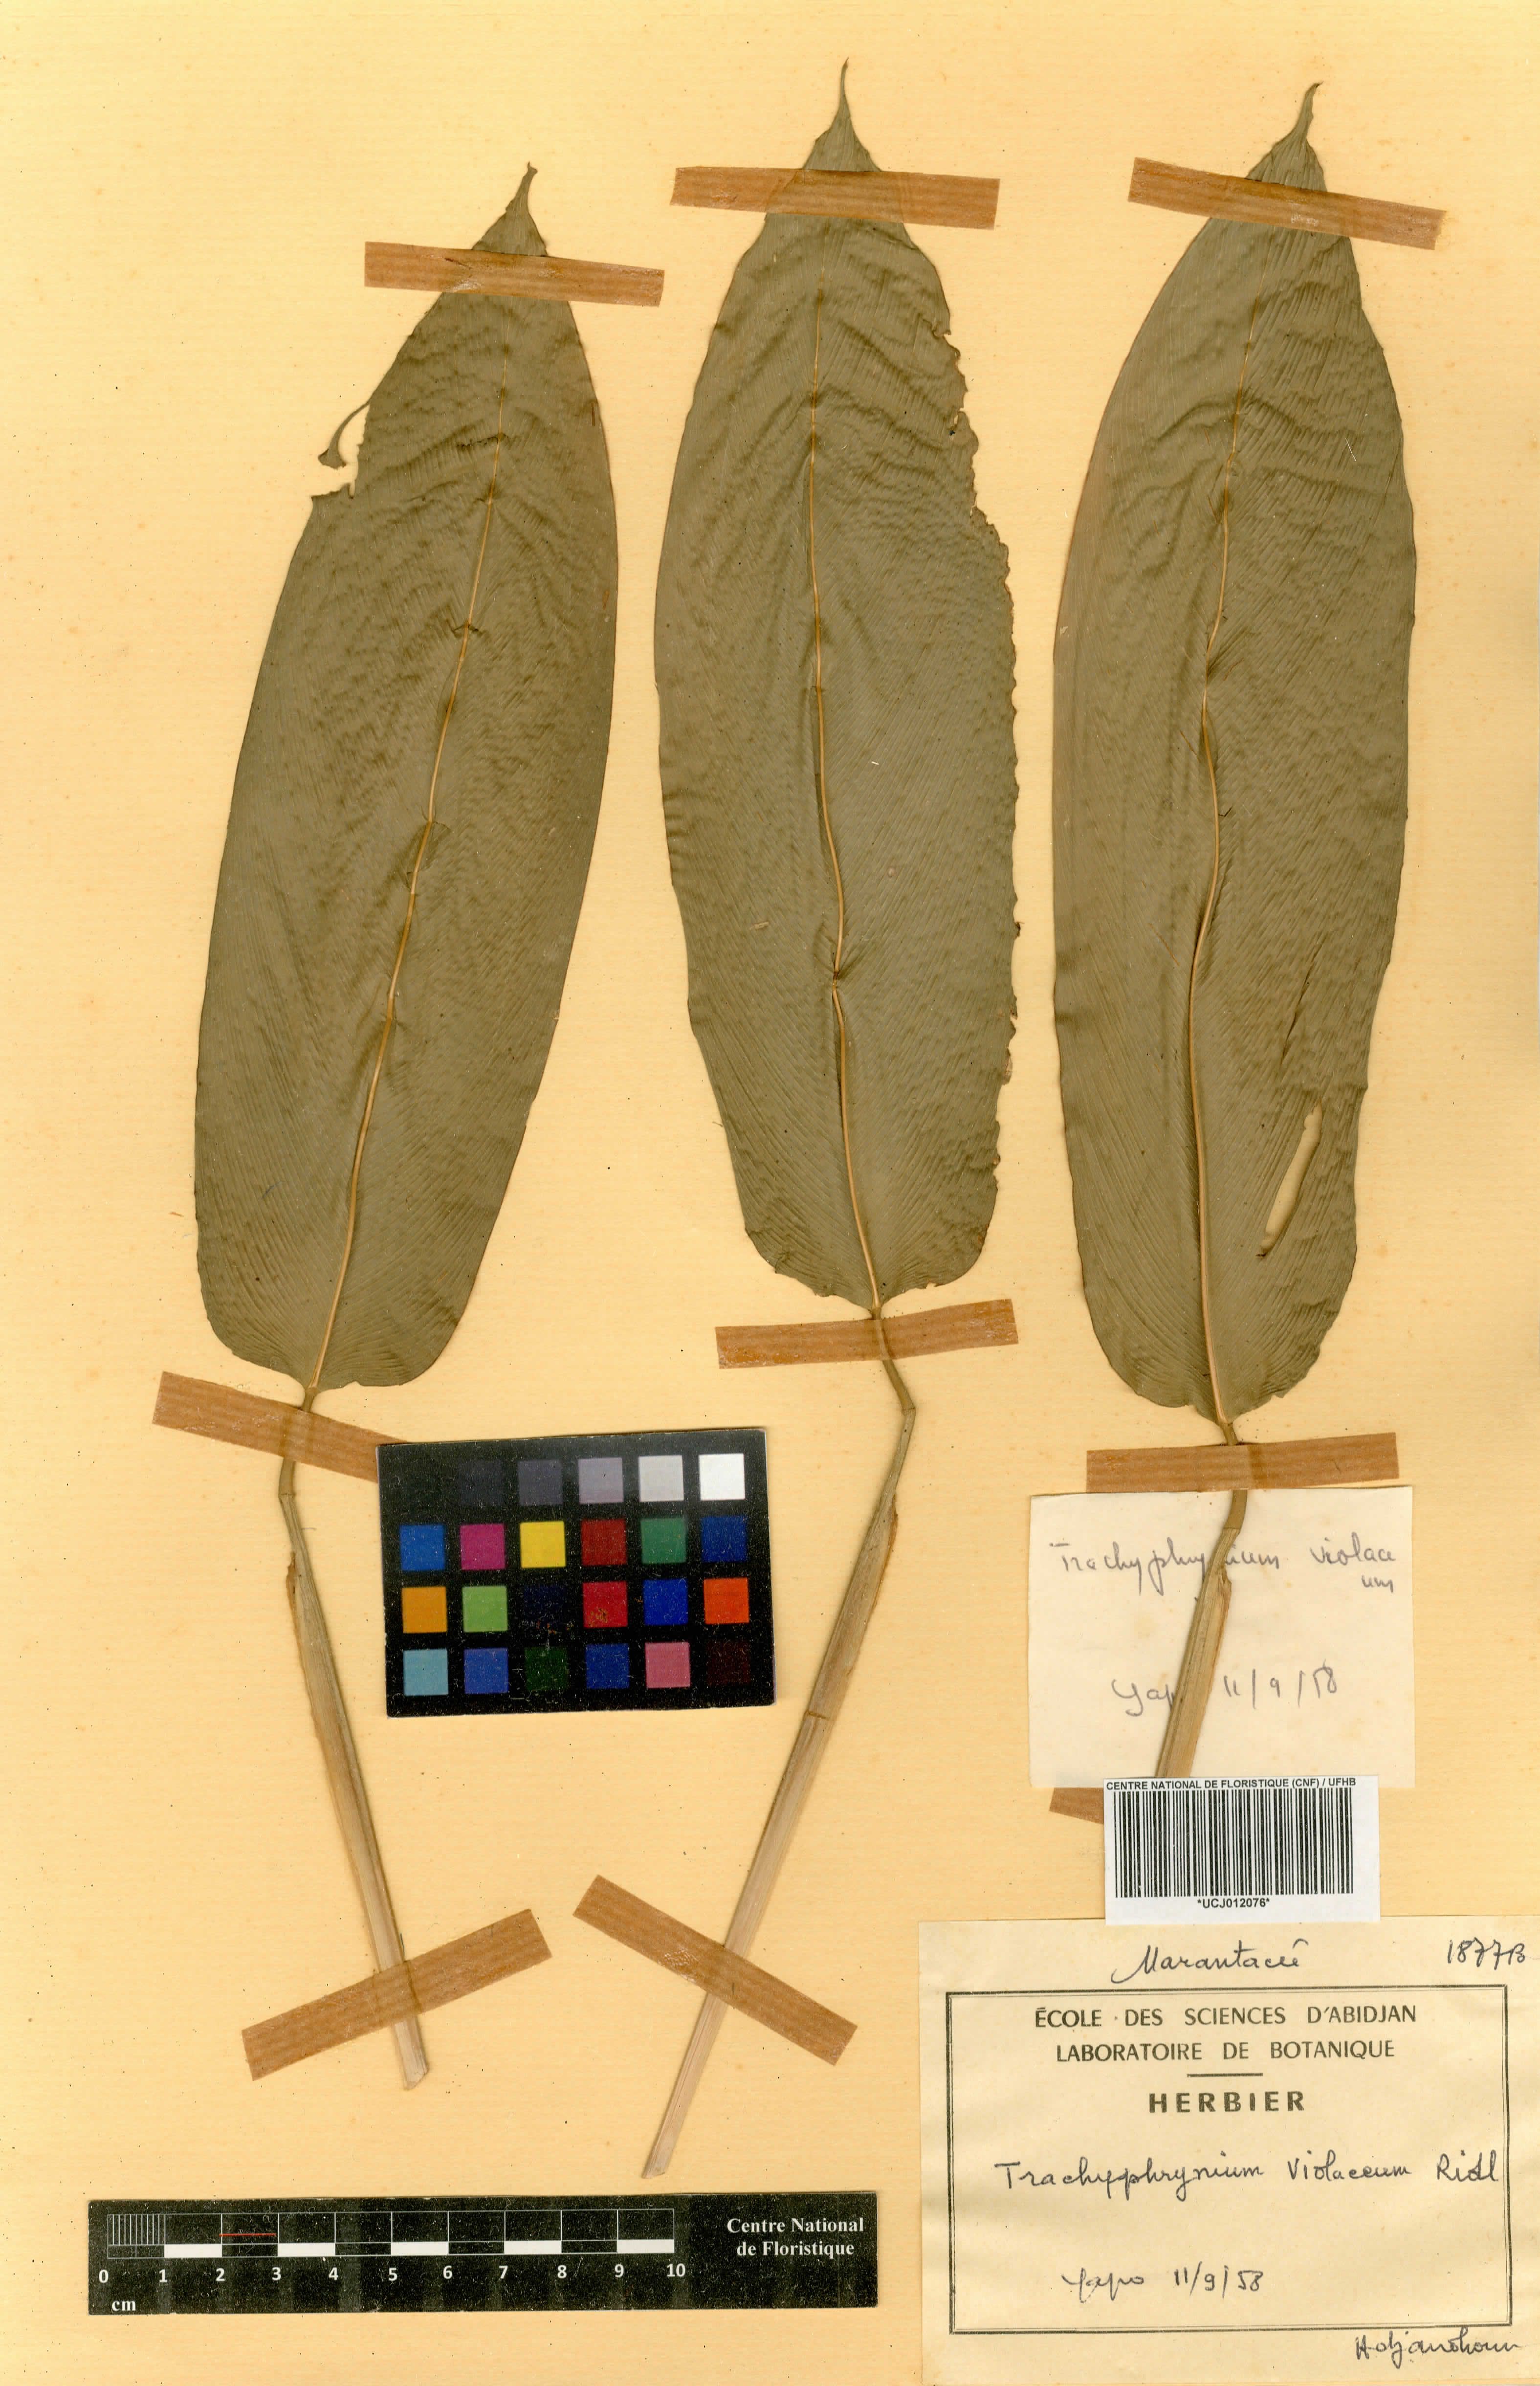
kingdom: Plantae
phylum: Tracheophyta
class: Liliopsida
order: Zingiberales
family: Marantaceae
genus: Hypselodelphys
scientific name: Hypselodelphys violacea
